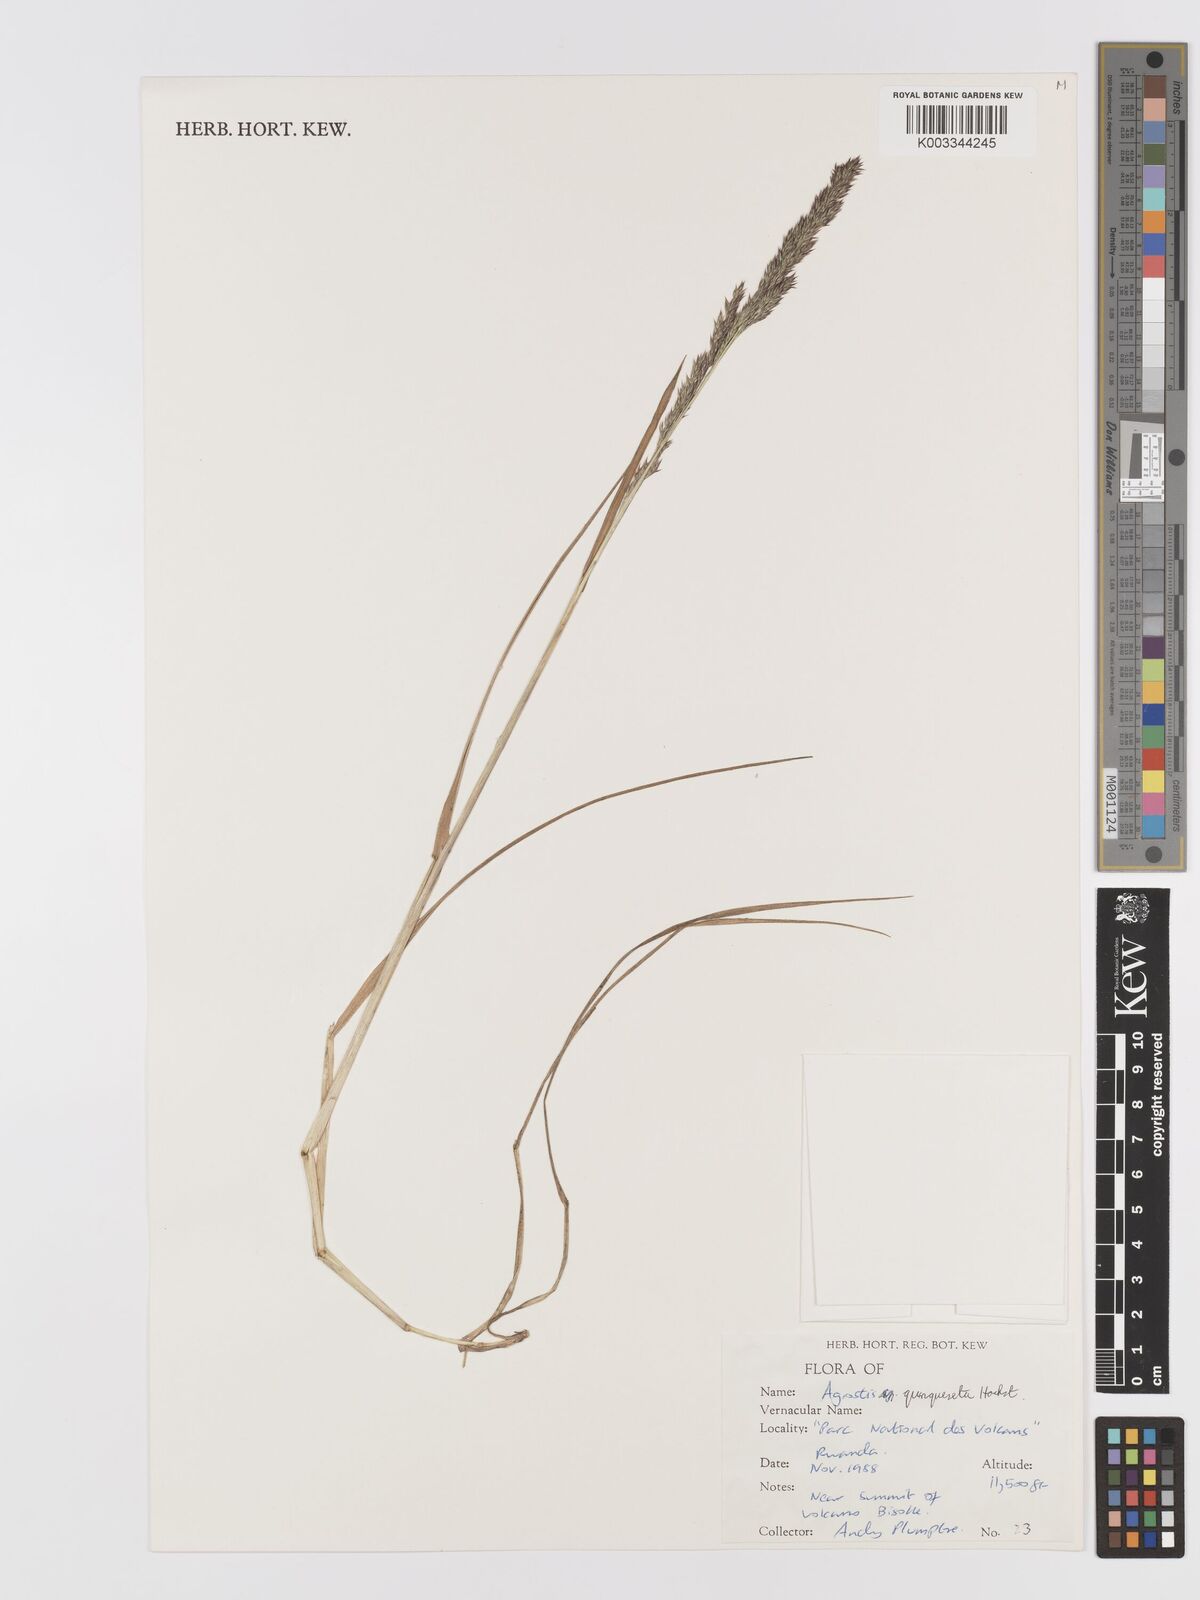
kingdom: Plantae
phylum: Tracheophyta
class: Liliopsida
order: Poales
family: Poaceae
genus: Agrostis
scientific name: Agrostis quinqueseta
